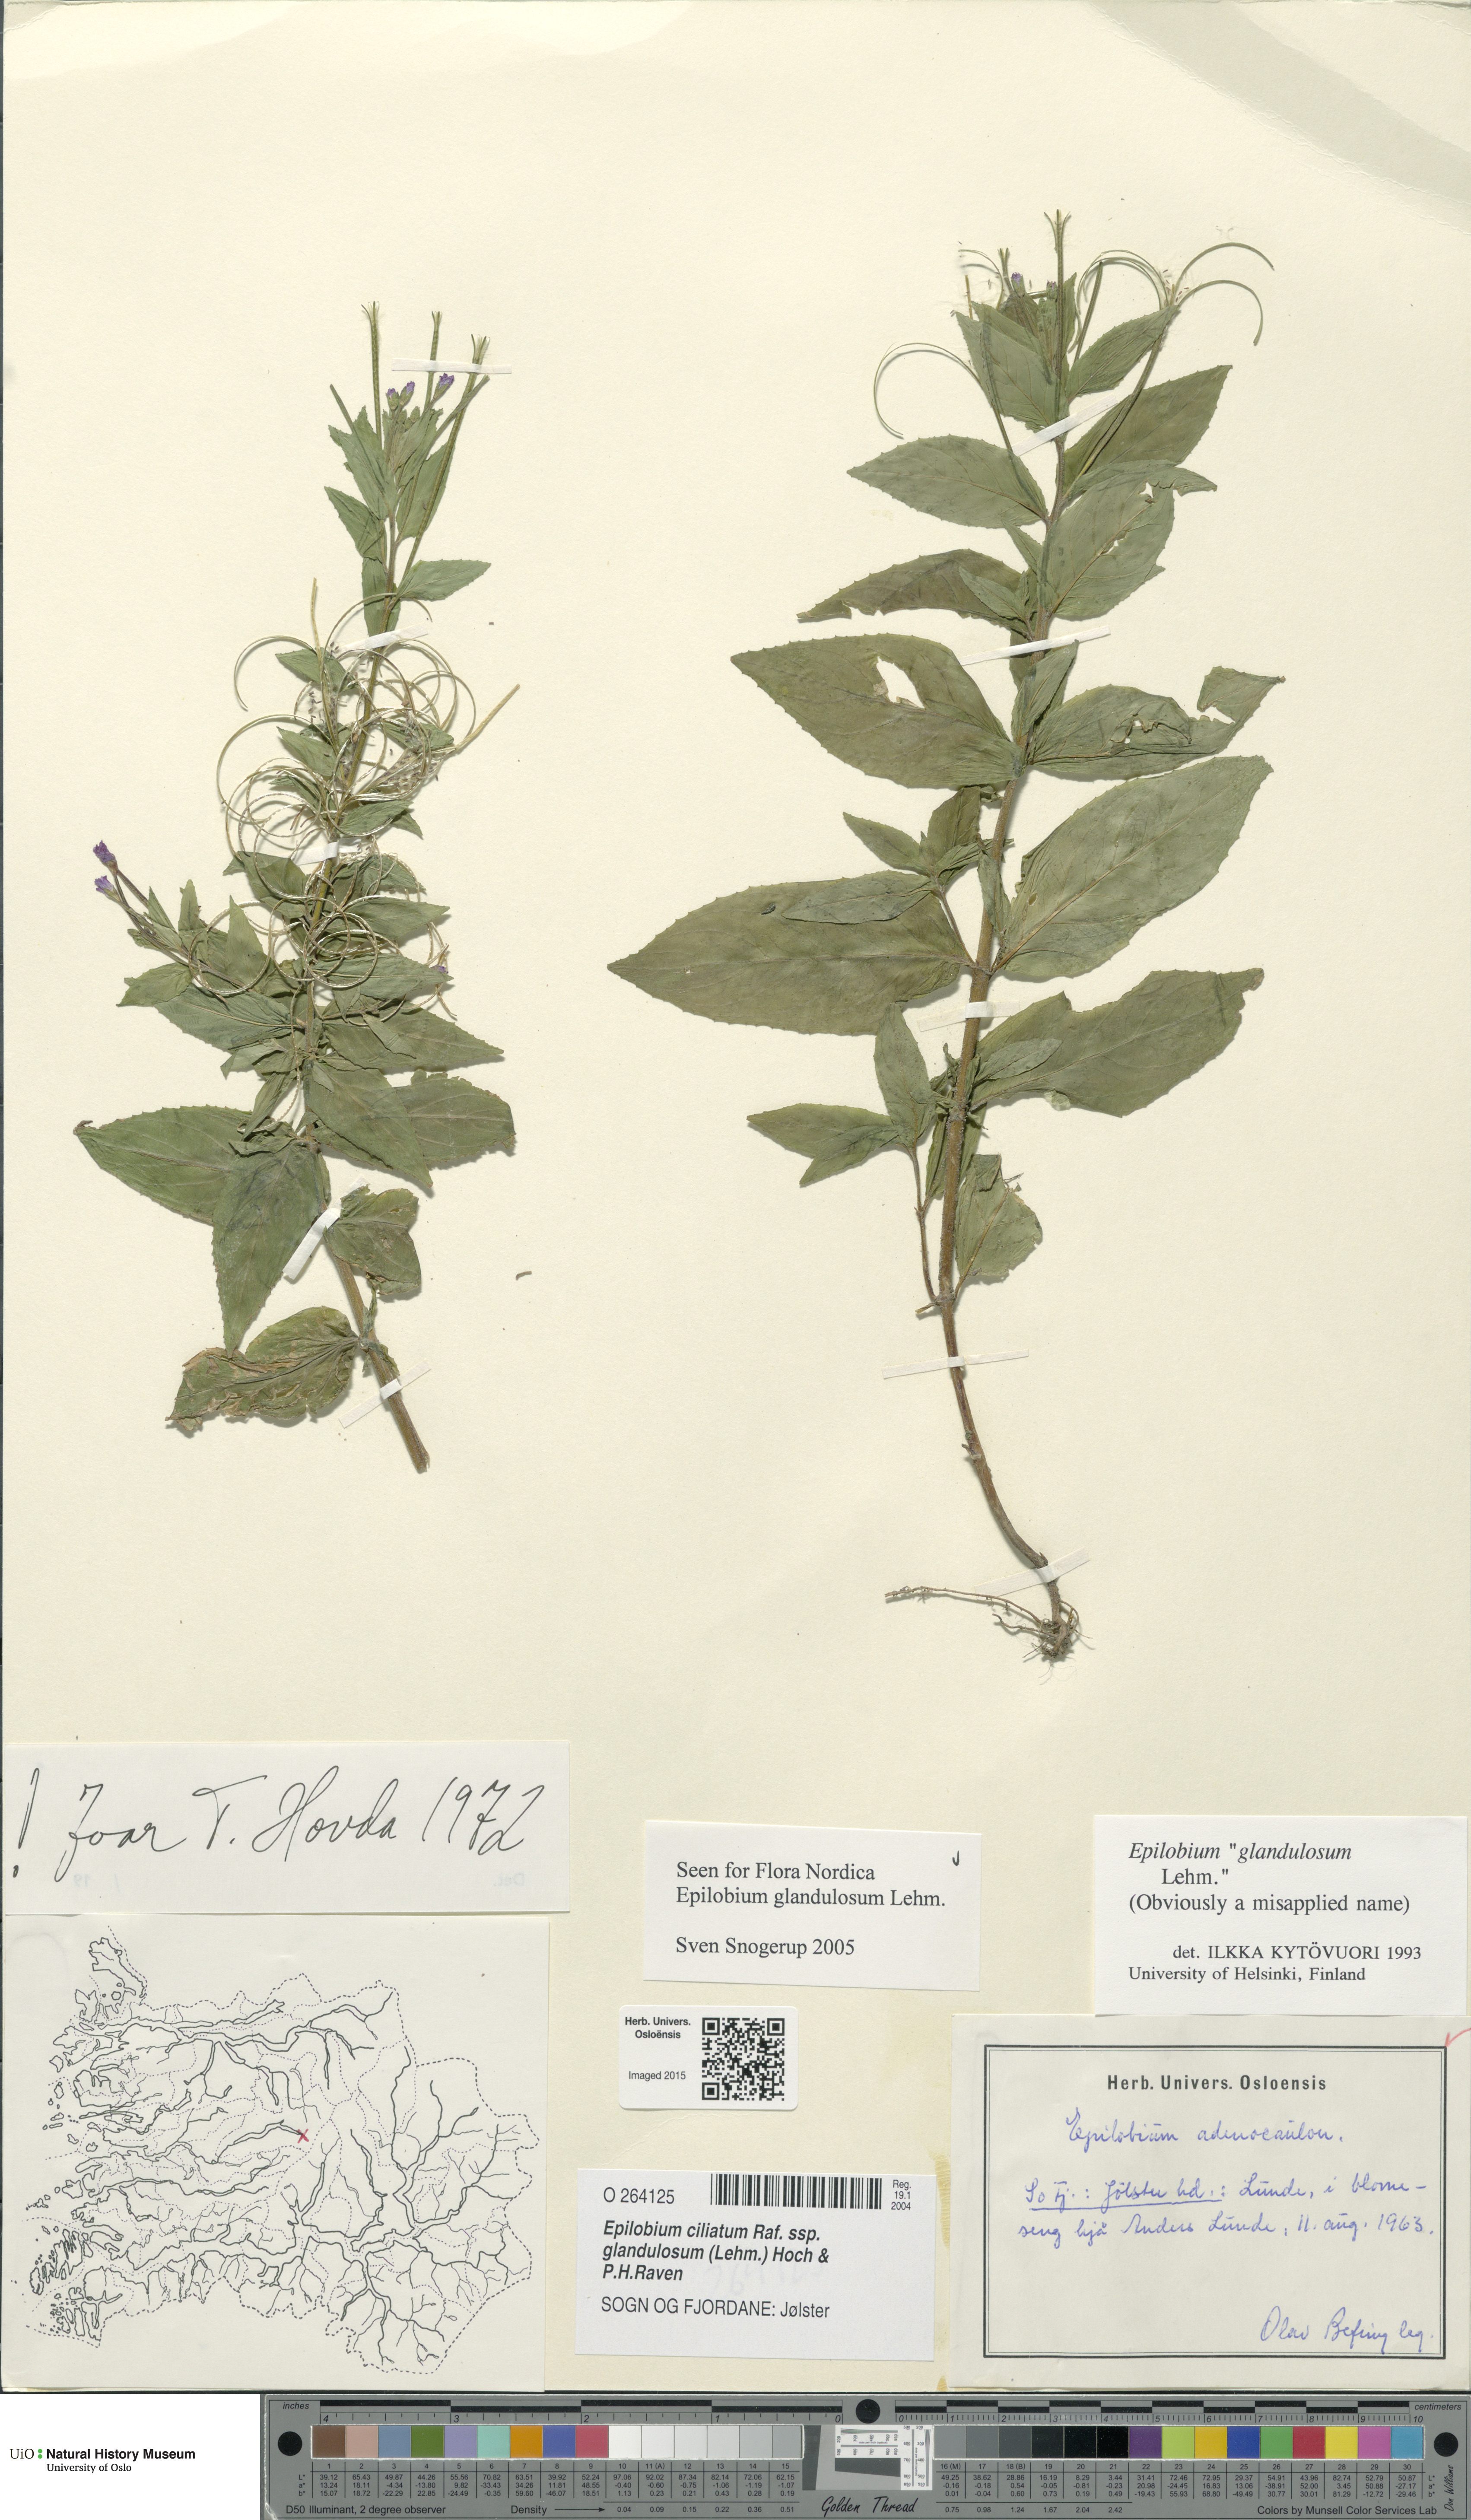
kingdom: Plantae
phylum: Tracheophyta
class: Magnoliopsida
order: Myrtales
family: Onagraceae
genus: Epilobium
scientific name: Epilobium ciliatum
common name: American willowherb
